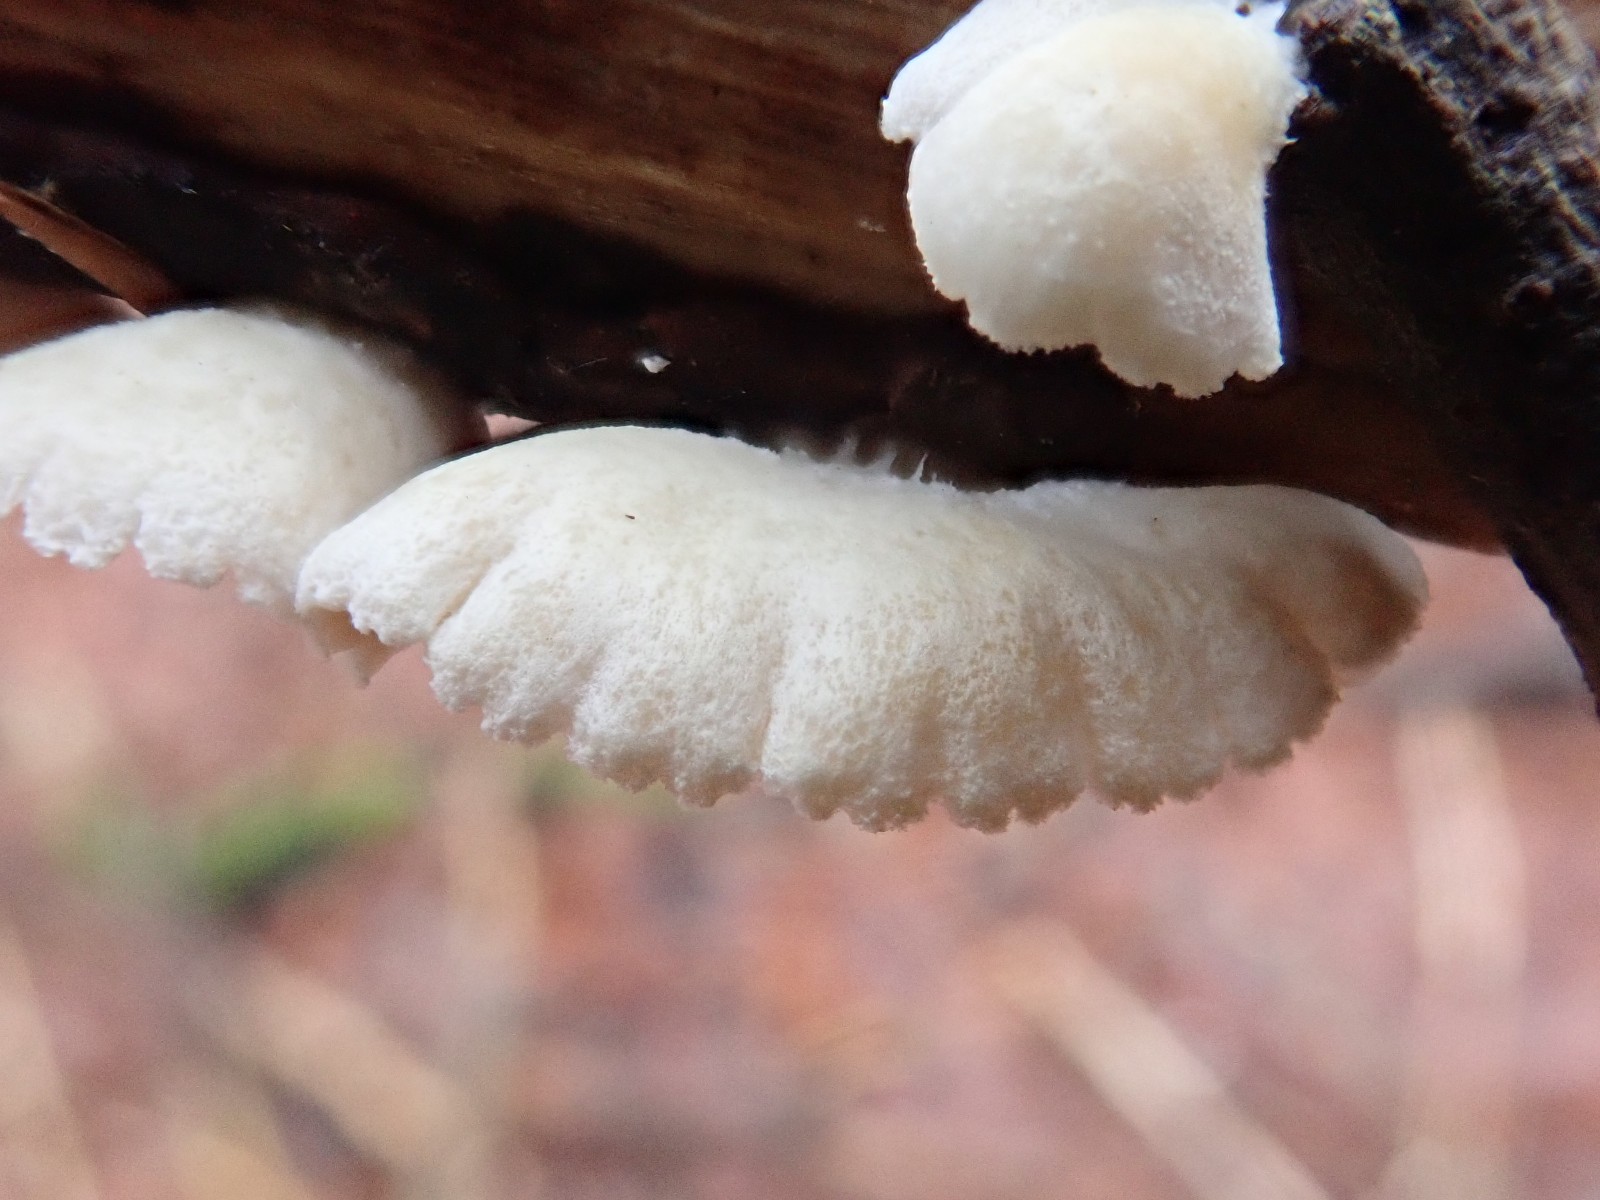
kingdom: Fungi
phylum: Basidiomycota
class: Agaricomycetes
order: Agaricales
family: Crepidotaceae
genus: Crepidotus
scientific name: Crepidotus
